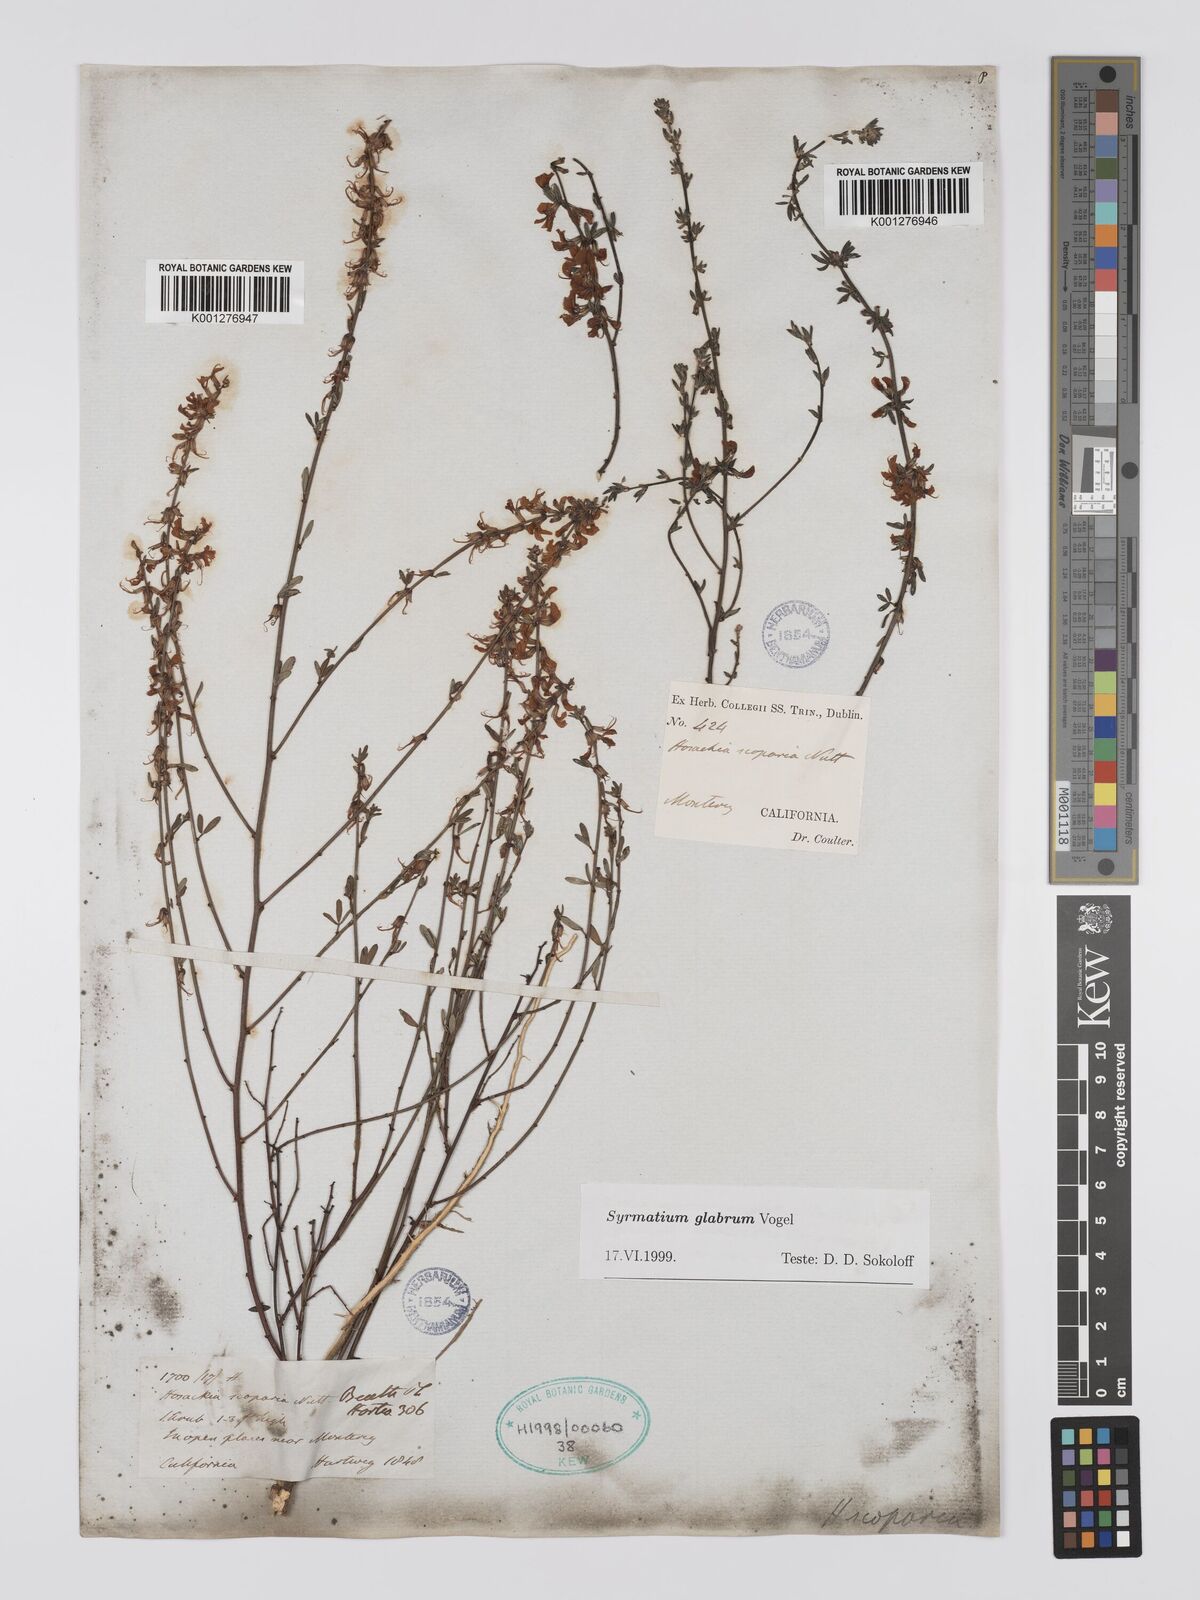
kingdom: Plantae
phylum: Tracheophyta
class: Magnoliopsida
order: Fabales
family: Fabaceae
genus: Acmispon
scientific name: Acmispon glaber
